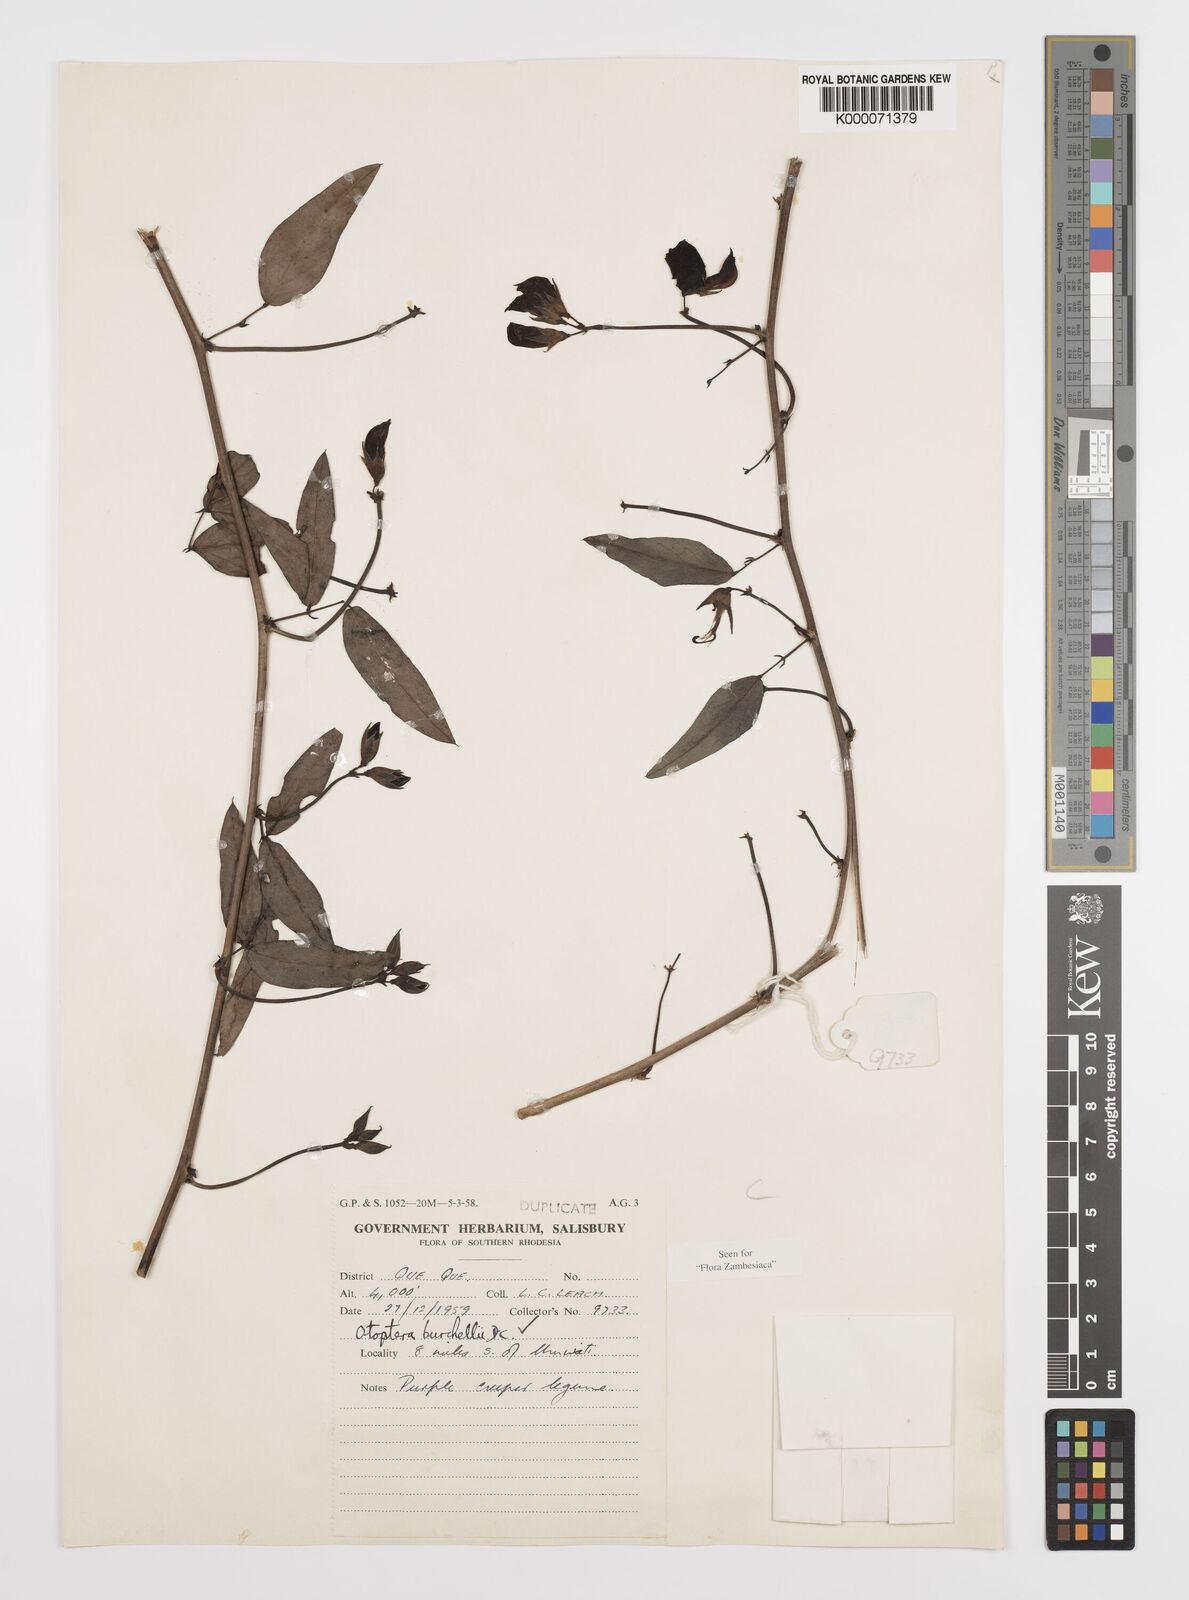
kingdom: Plantae
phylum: Tracheophyta
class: Magnoliopsida
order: Fabales
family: Fabaceae
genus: Otoptera
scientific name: Otoptera burchellii
